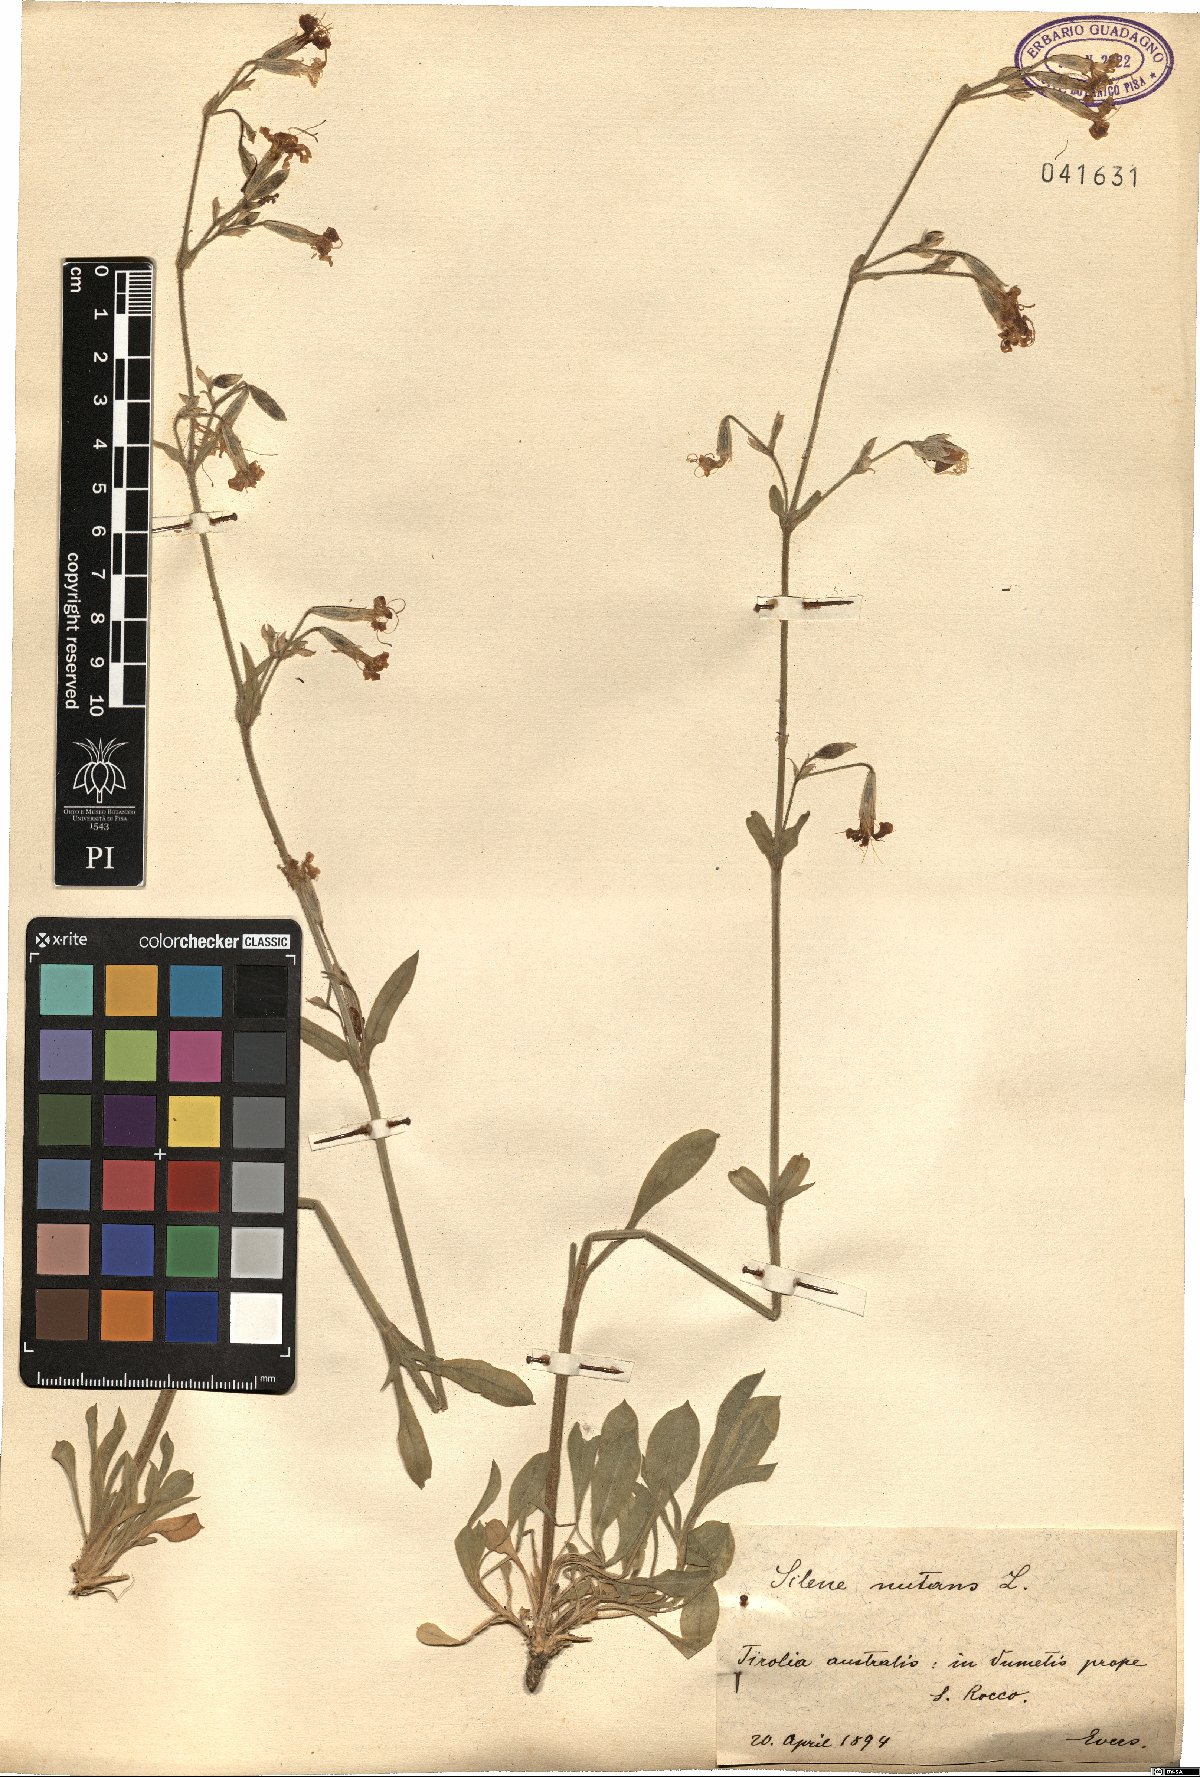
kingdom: Plantae
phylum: Tracheophyta
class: Magnoliopsida
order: Caryophyllales
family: Caryophyllaceae
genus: Silene
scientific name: Silene nutans
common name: Nottingham catchfly
